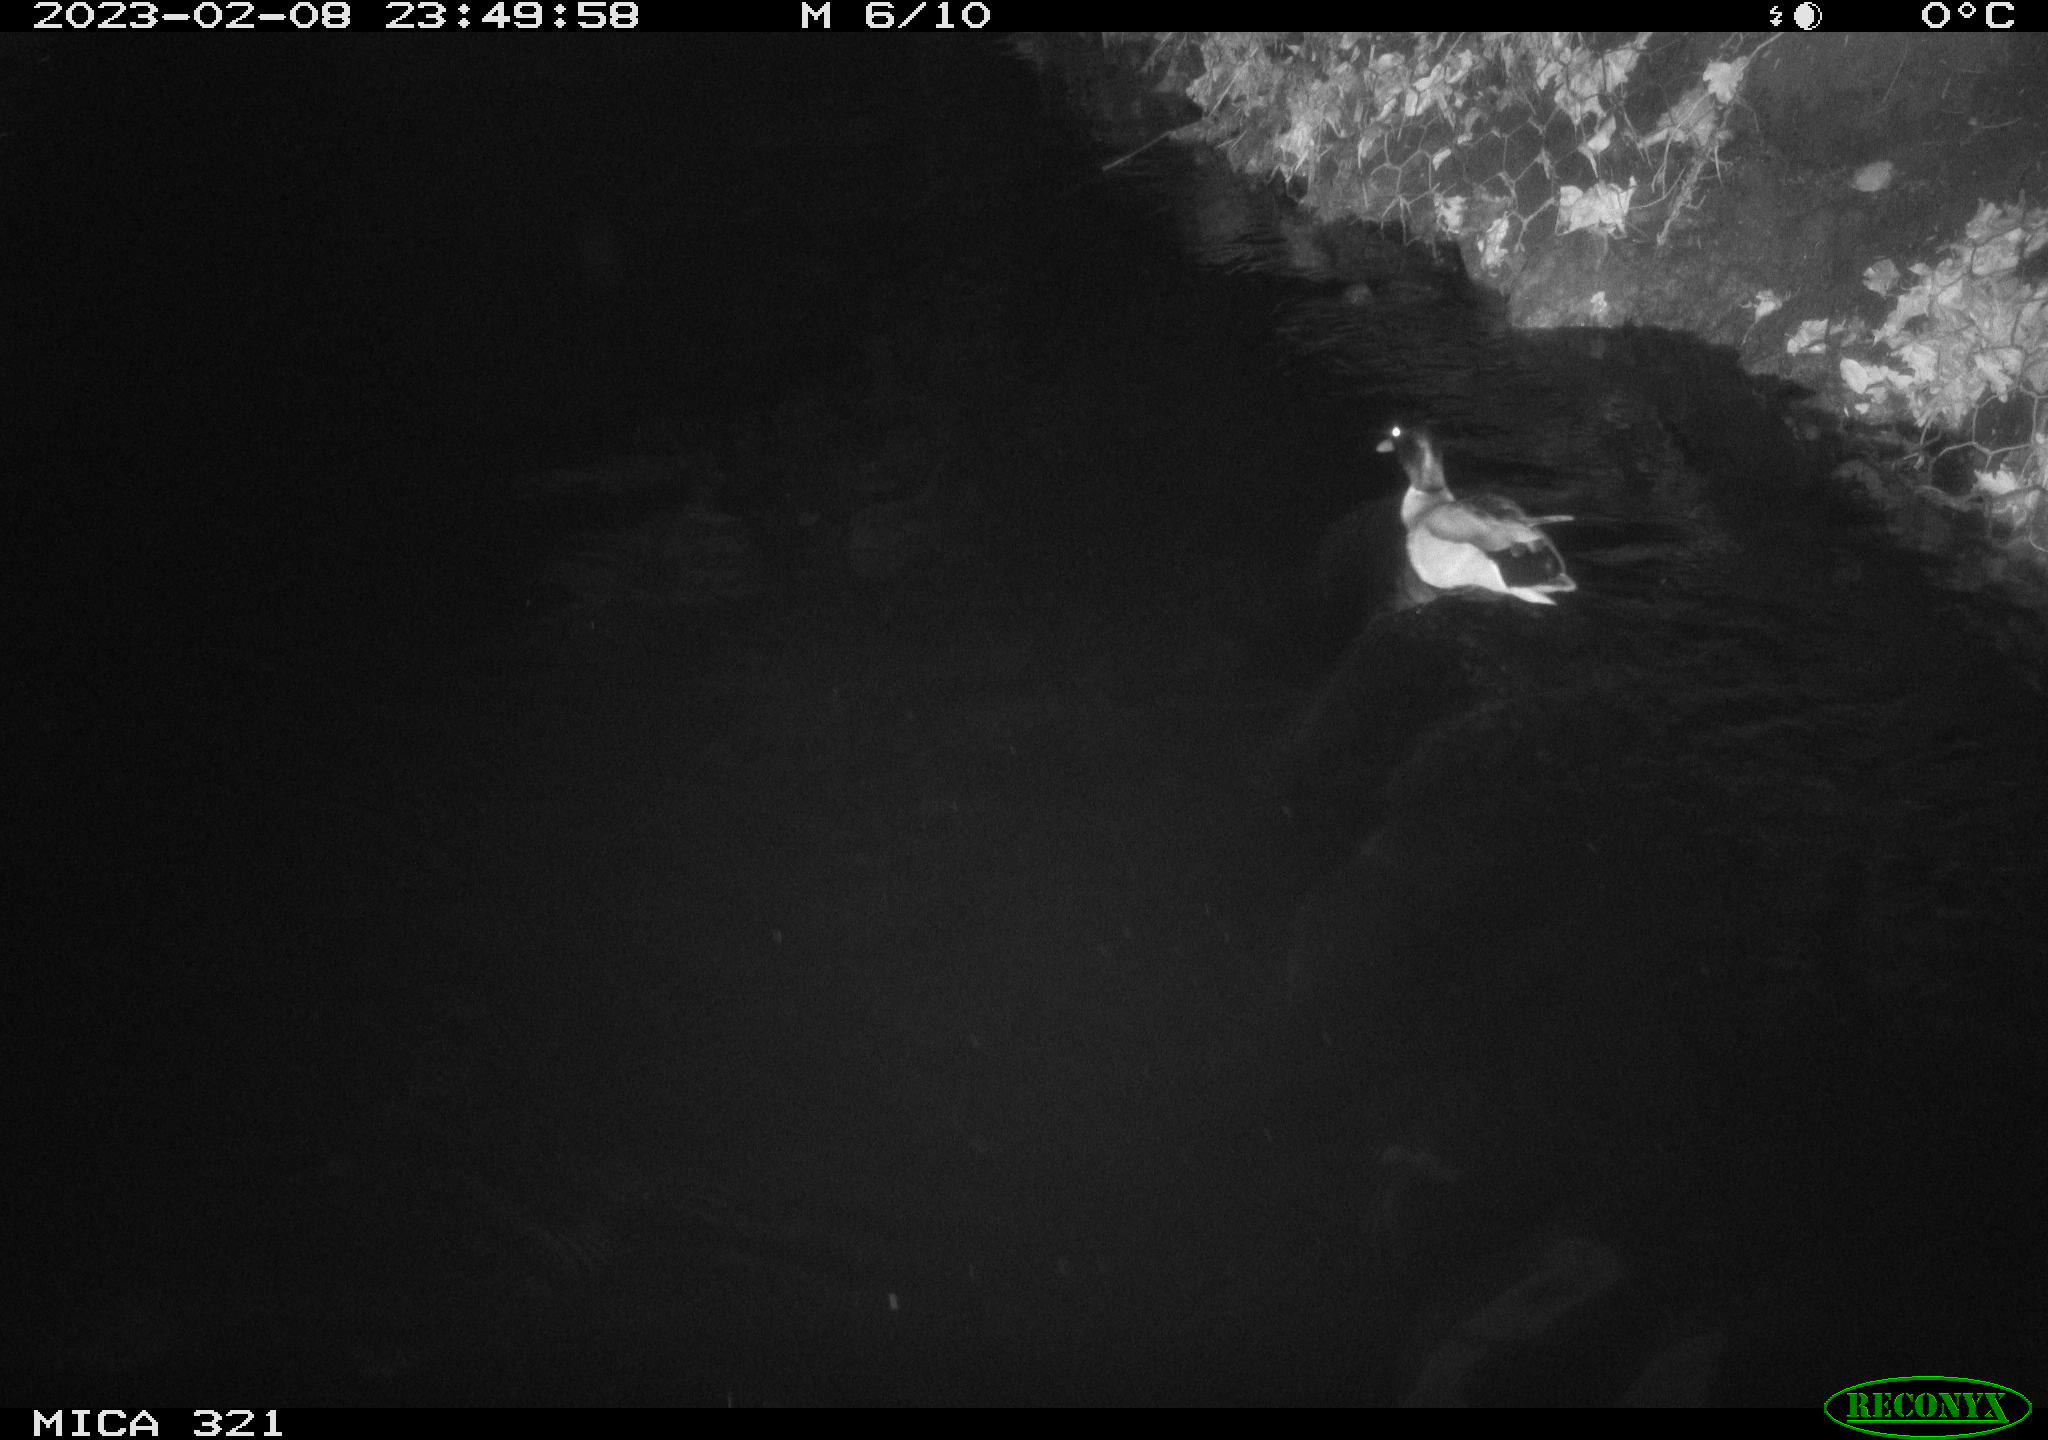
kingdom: Animalia
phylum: Chordata
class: Aves
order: Anseriformes
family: Anatidae
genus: Anas
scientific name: Anas
